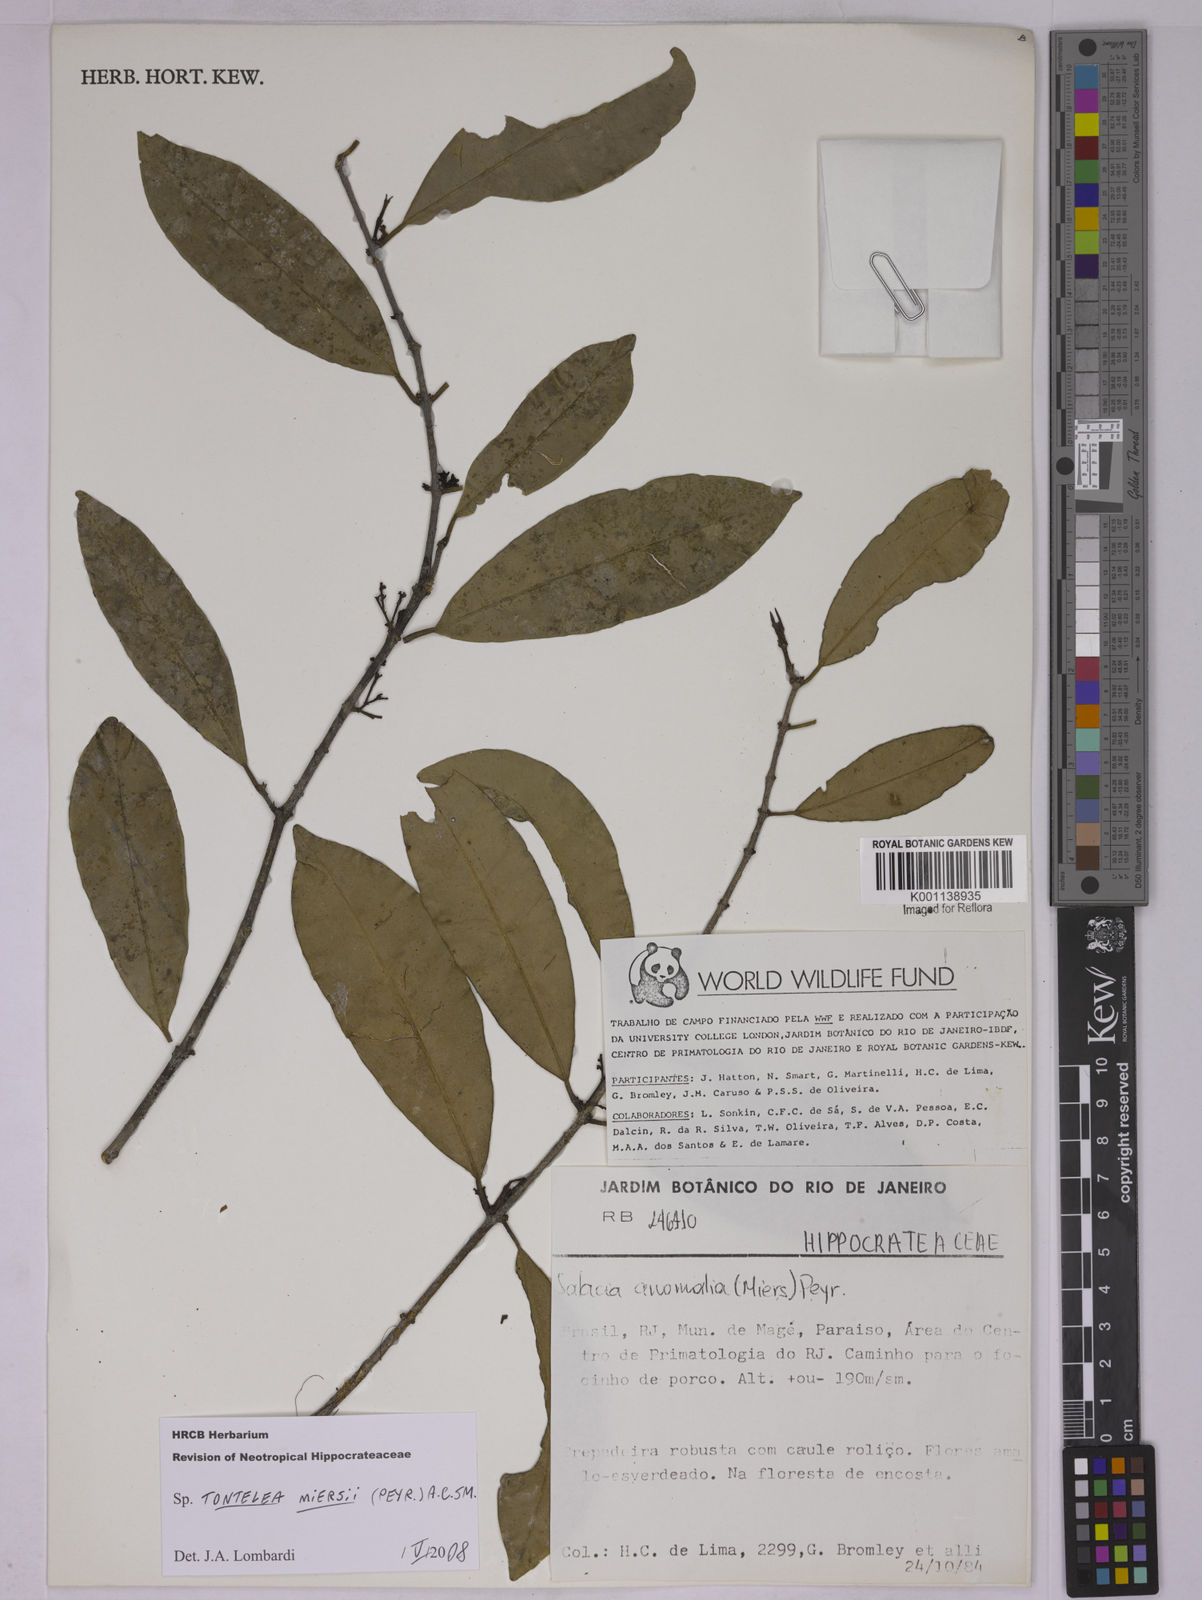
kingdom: Plantae
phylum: Tracheophyta
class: Magnoliopsida
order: Celastrales
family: Celastraceae
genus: Tontelea
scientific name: Tontelea miersii
